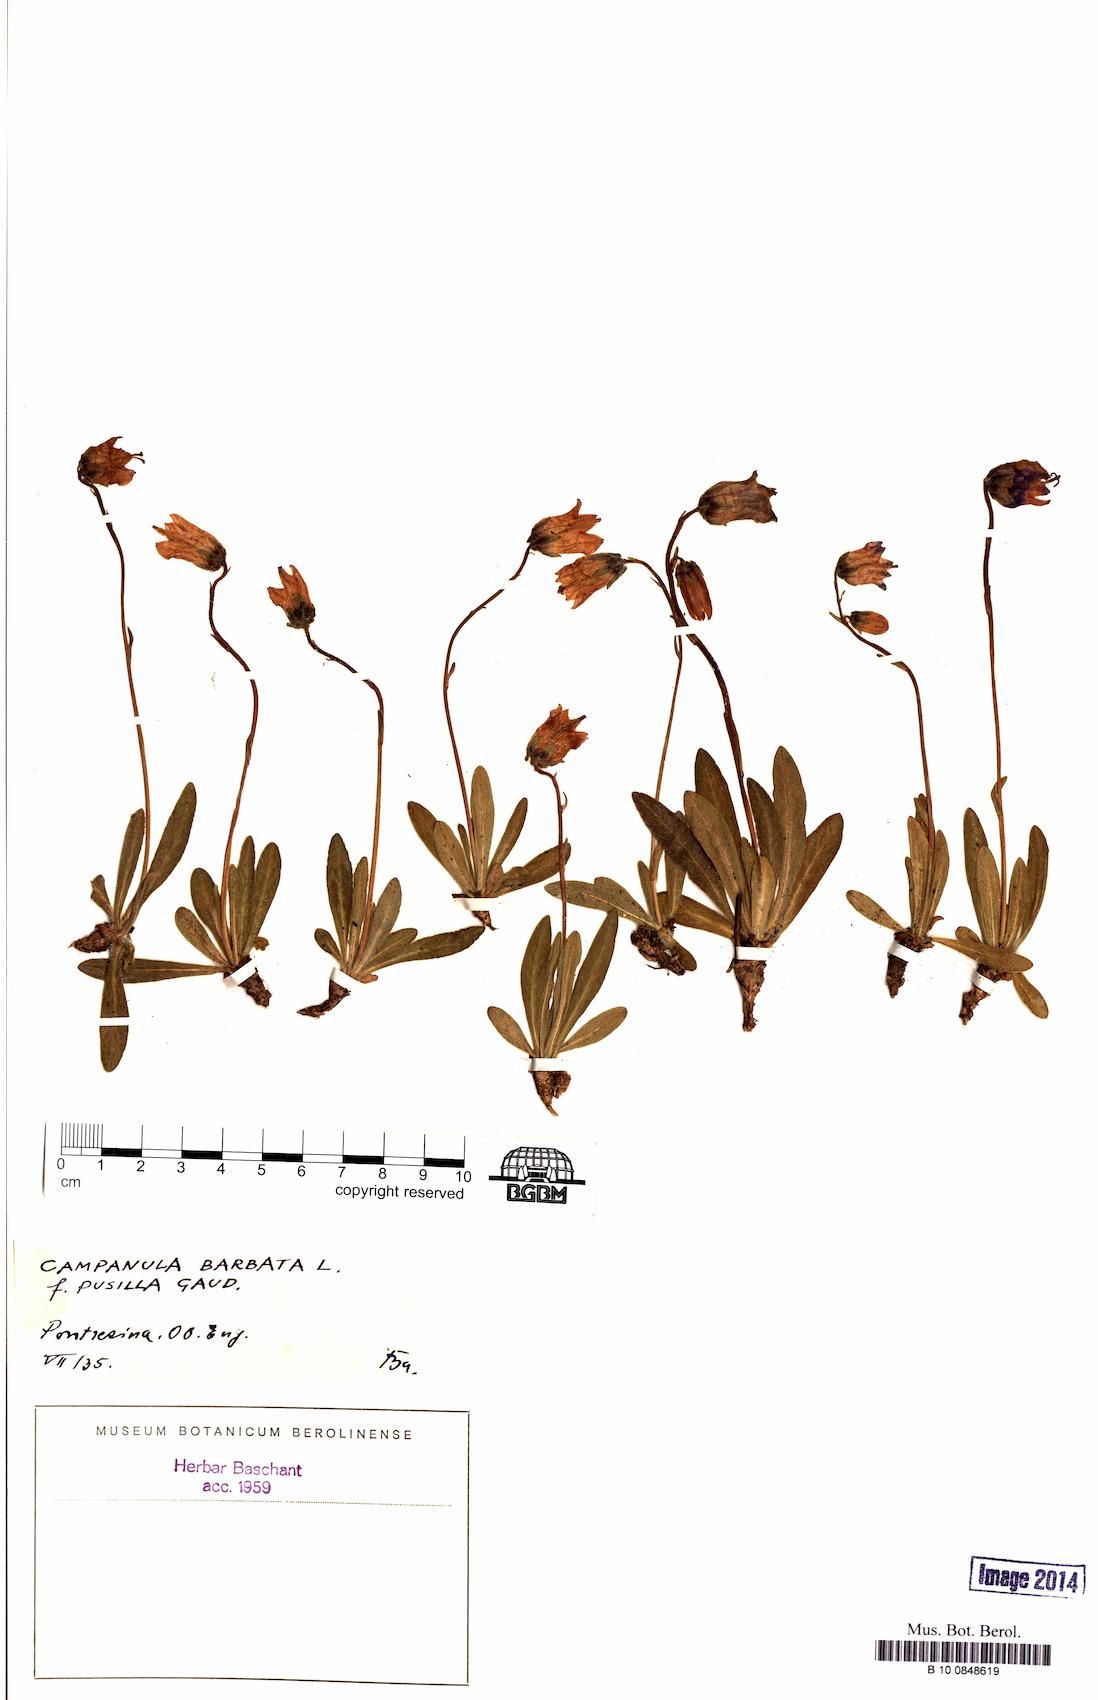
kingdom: Plantae
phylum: Tracheophyta
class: Magnoliopsida
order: Asterales
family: Campanulaceae
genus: Campanula
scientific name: Campanula barbata
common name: Bearded bellflower
